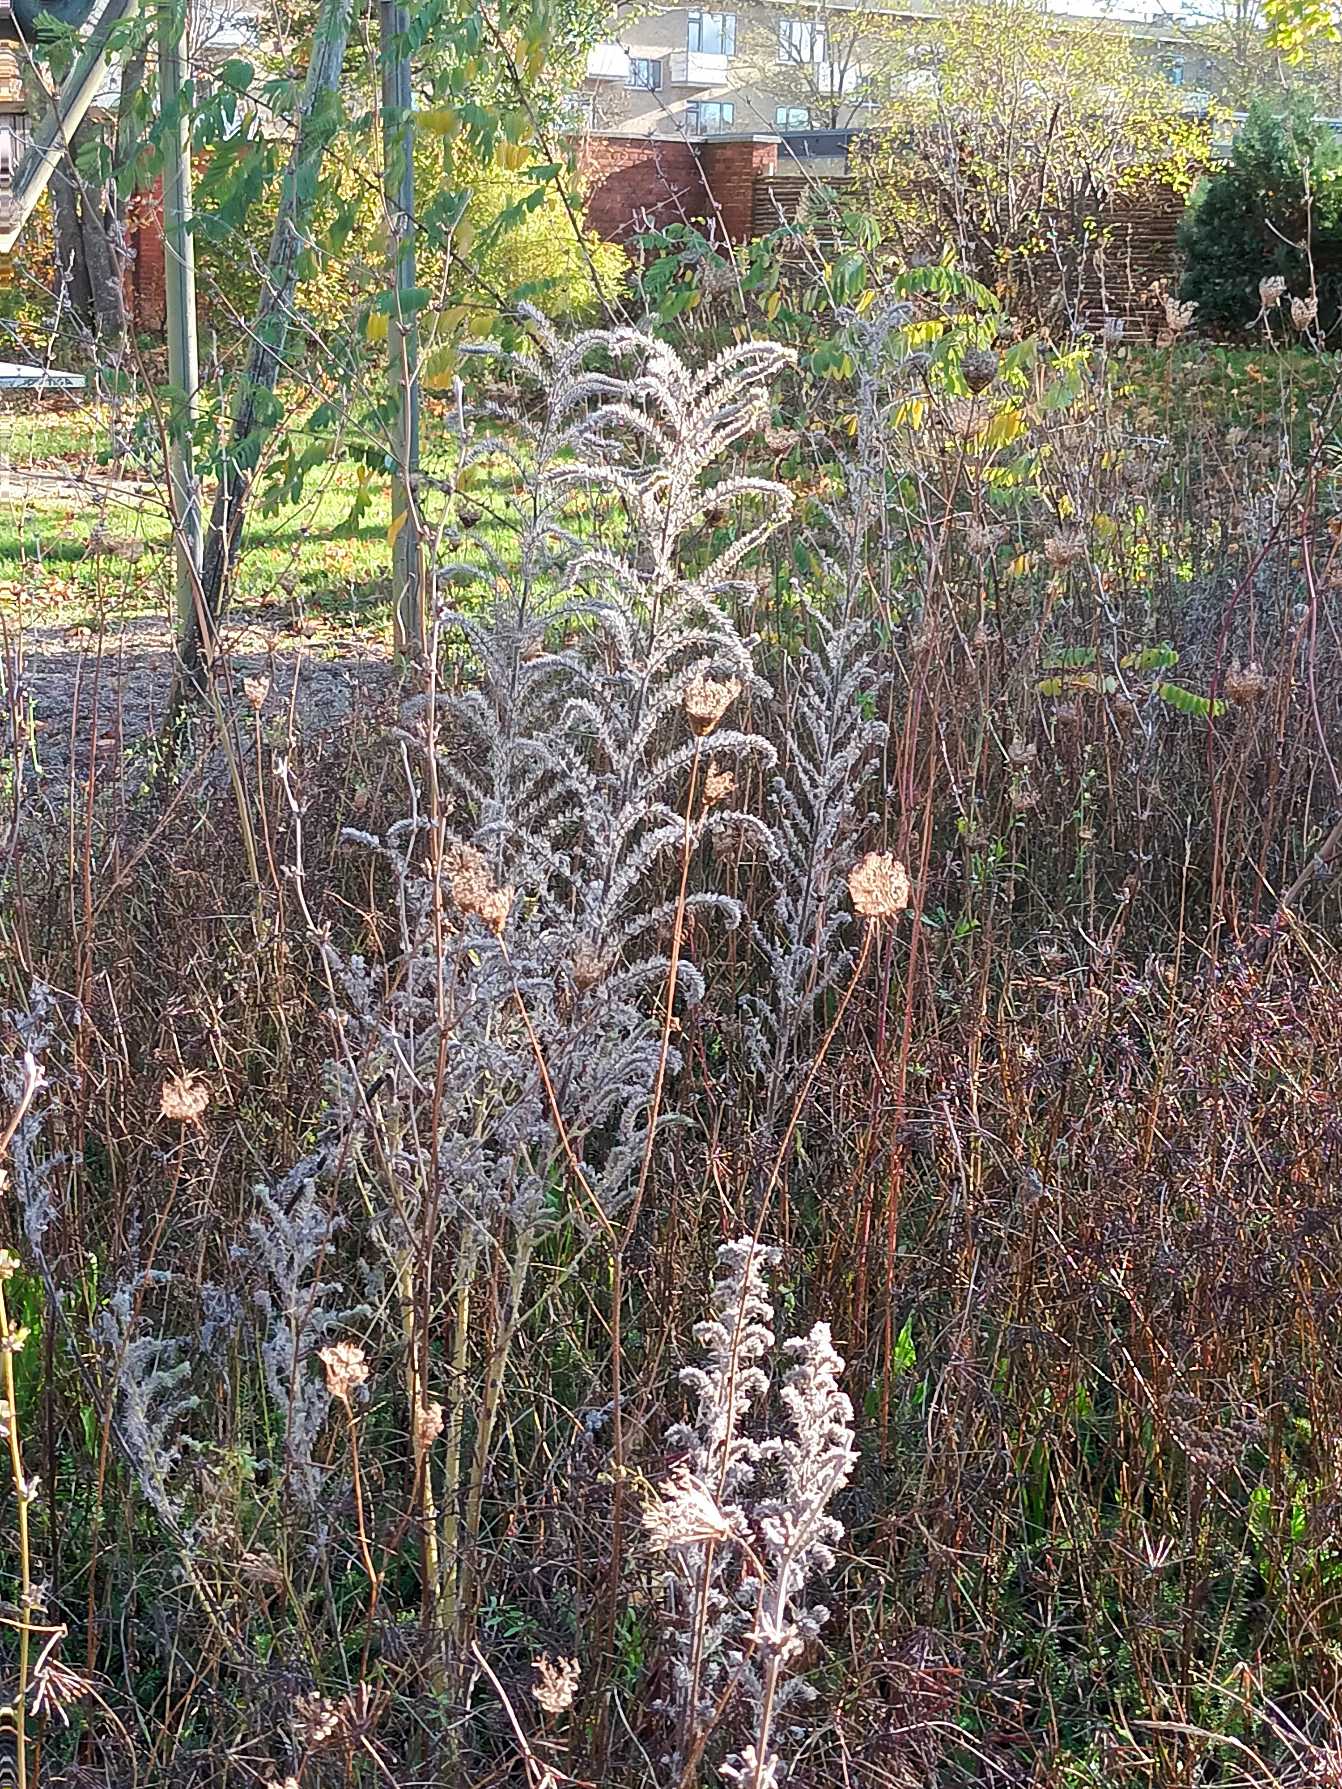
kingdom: Plantae
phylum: Tracheophyta
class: Magnoliopsida
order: Boraginales
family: Boraginaceae
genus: Echium
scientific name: Echium vulgare
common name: Slangehoved
